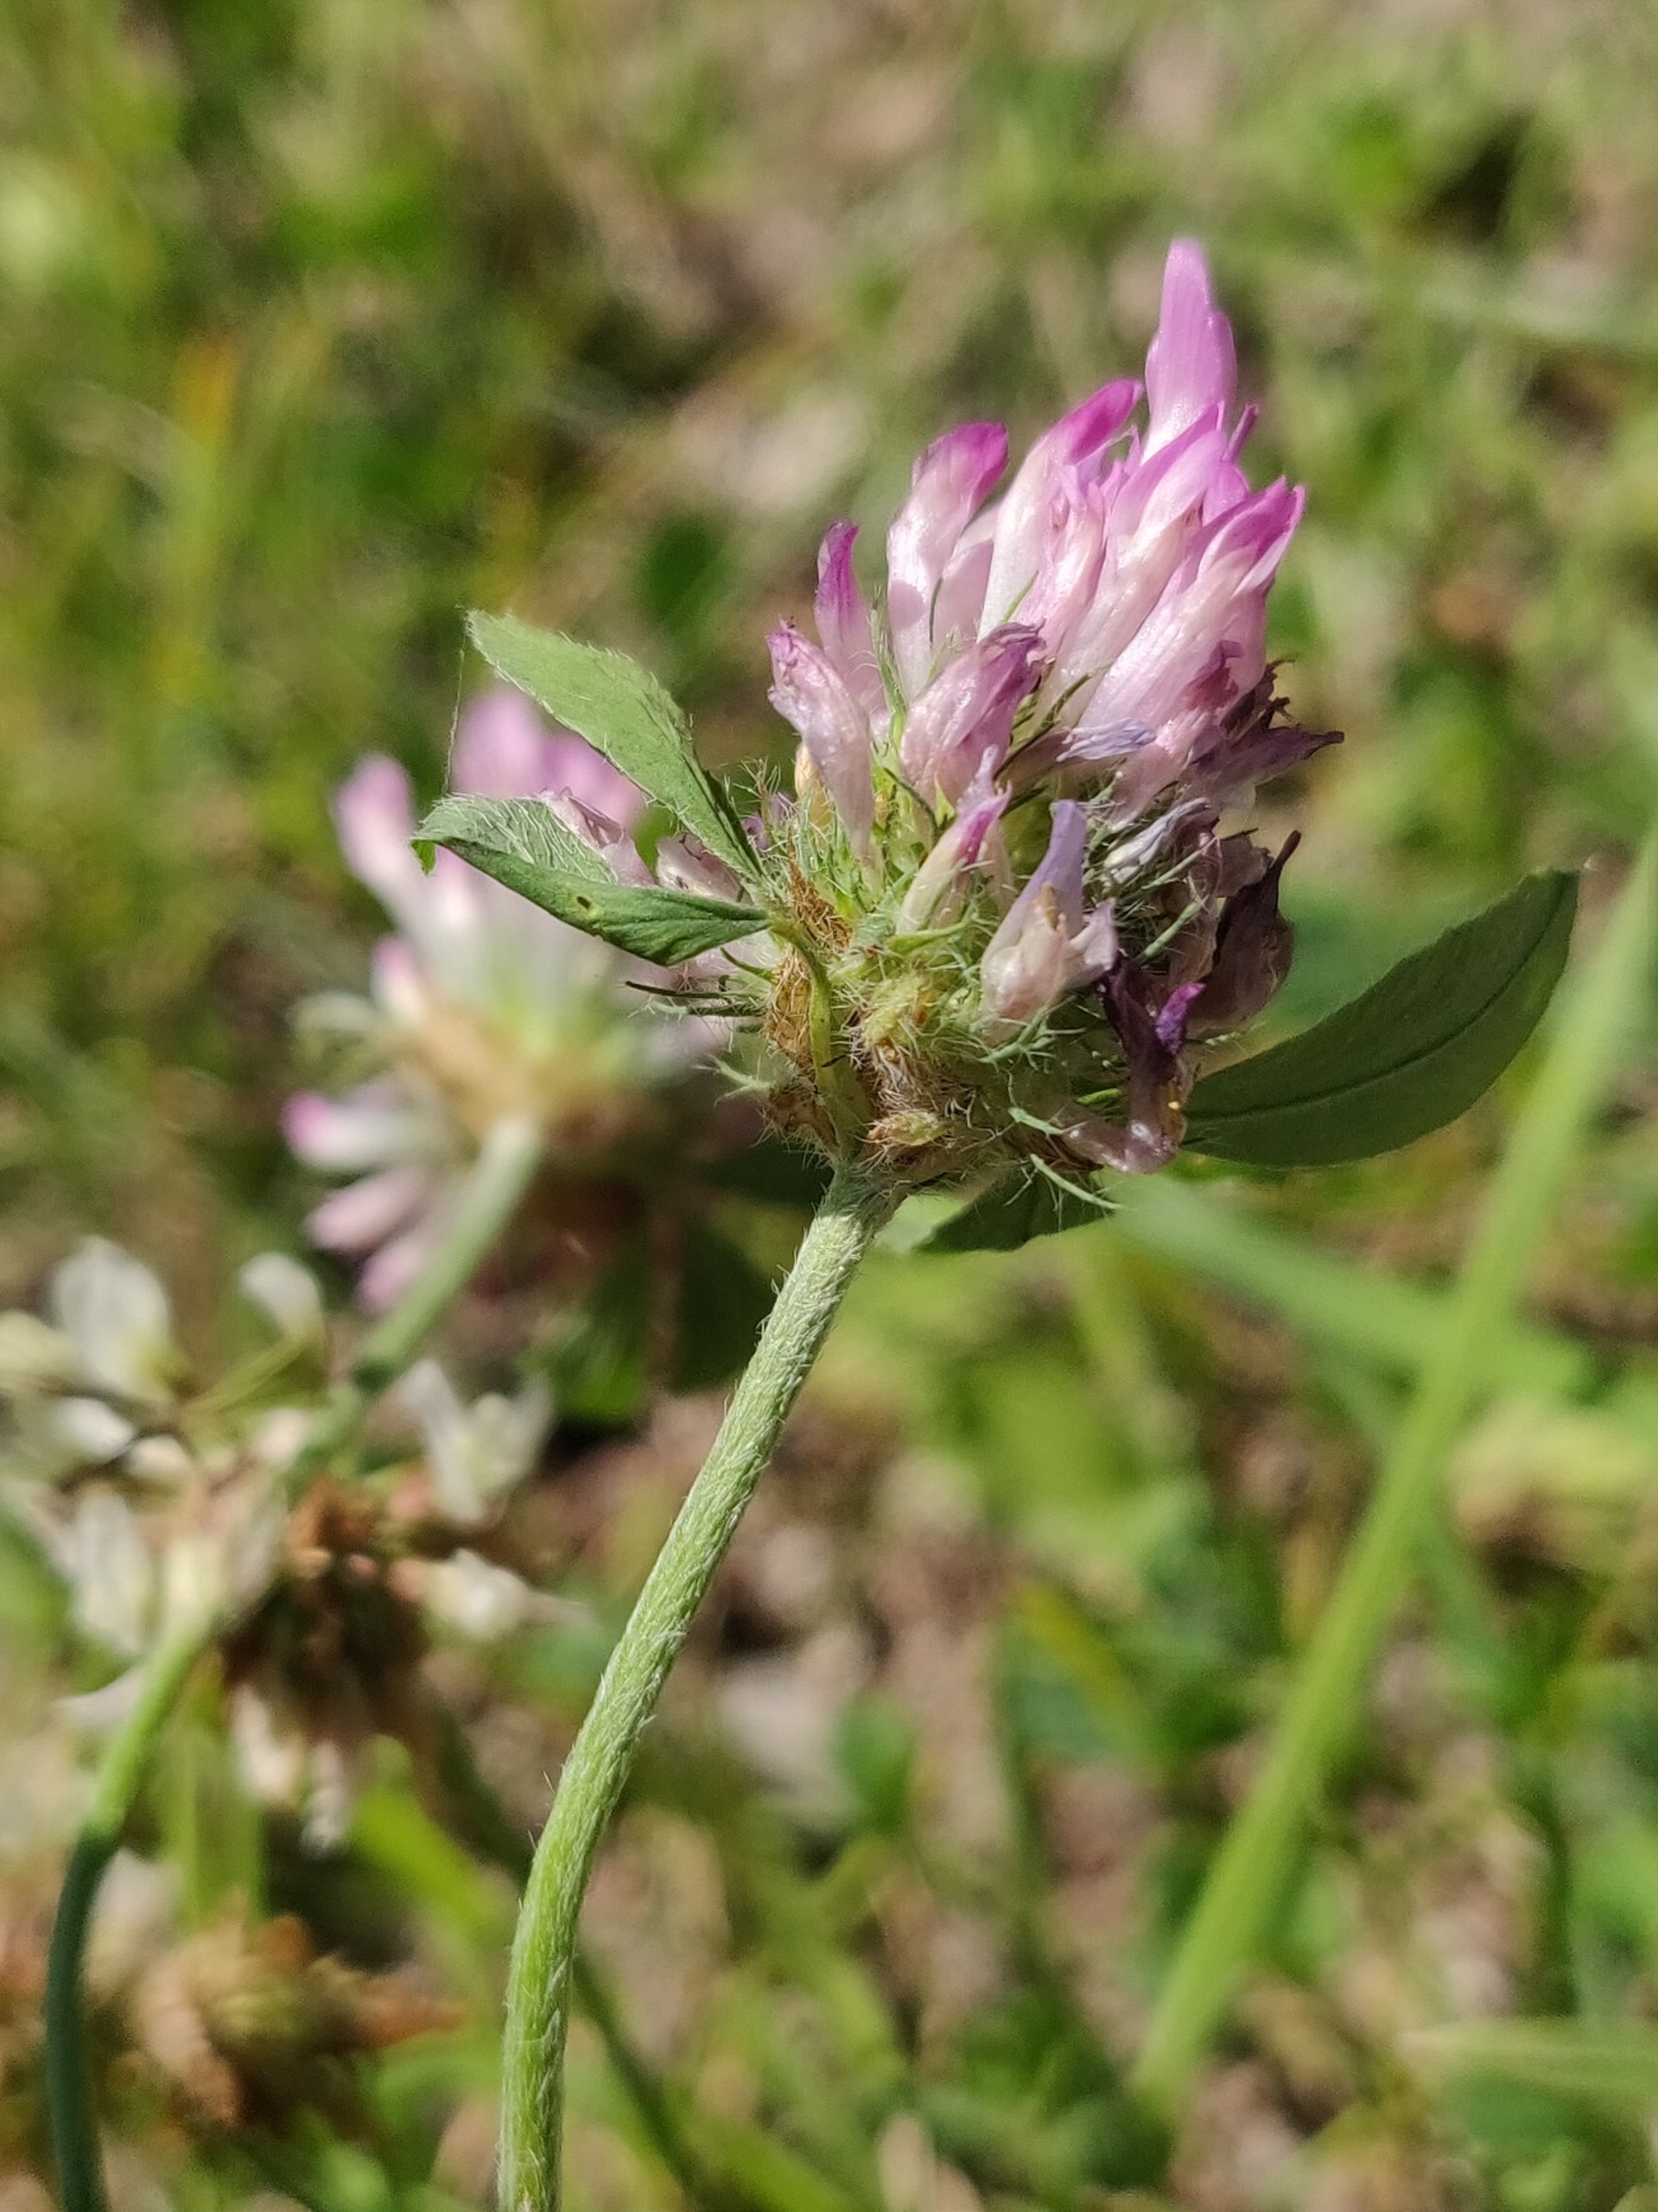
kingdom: Plantae
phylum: Tracheophyta
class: Magnoliopsida
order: Fabales
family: Fabaceae
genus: Trifolium
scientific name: Trifolium pratense
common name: Rød-kløver
